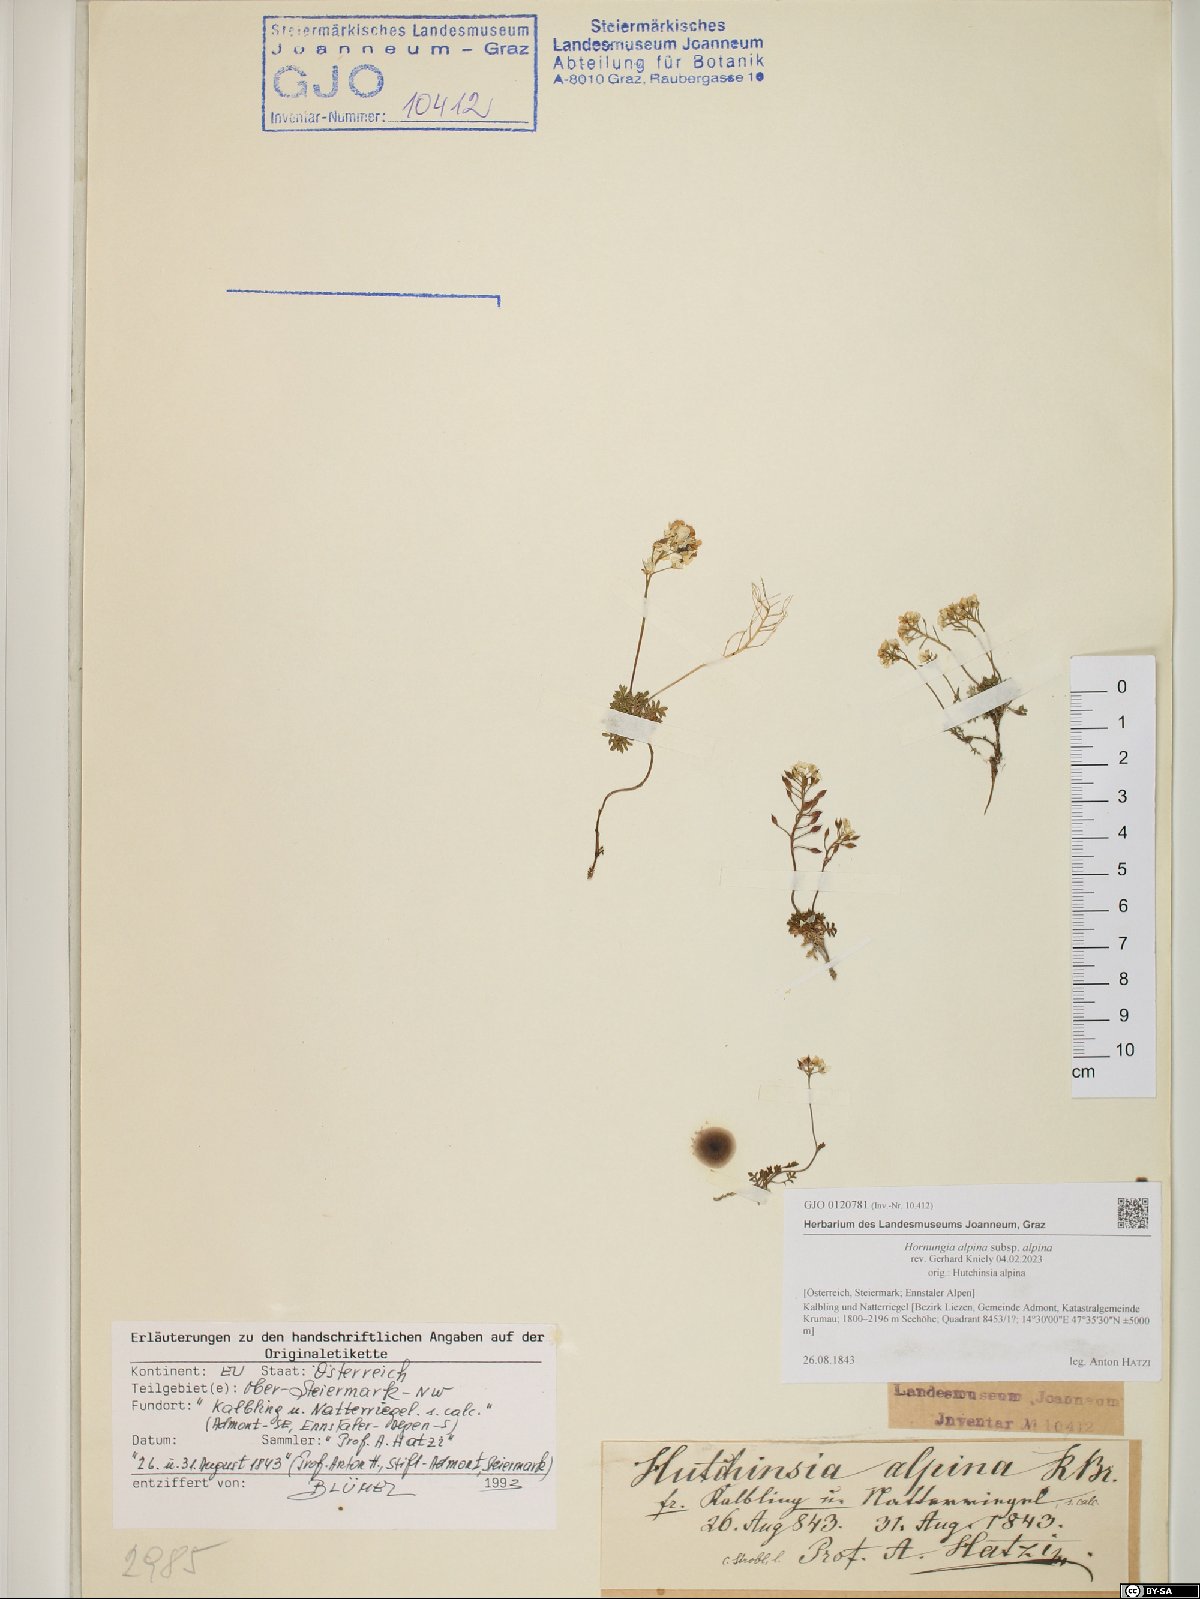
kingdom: Plantae
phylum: Tracheophyta
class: Magnoliopsida
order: Brassicales
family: Brassicaceae
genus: Hornungia
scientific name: Hornungia alpina
